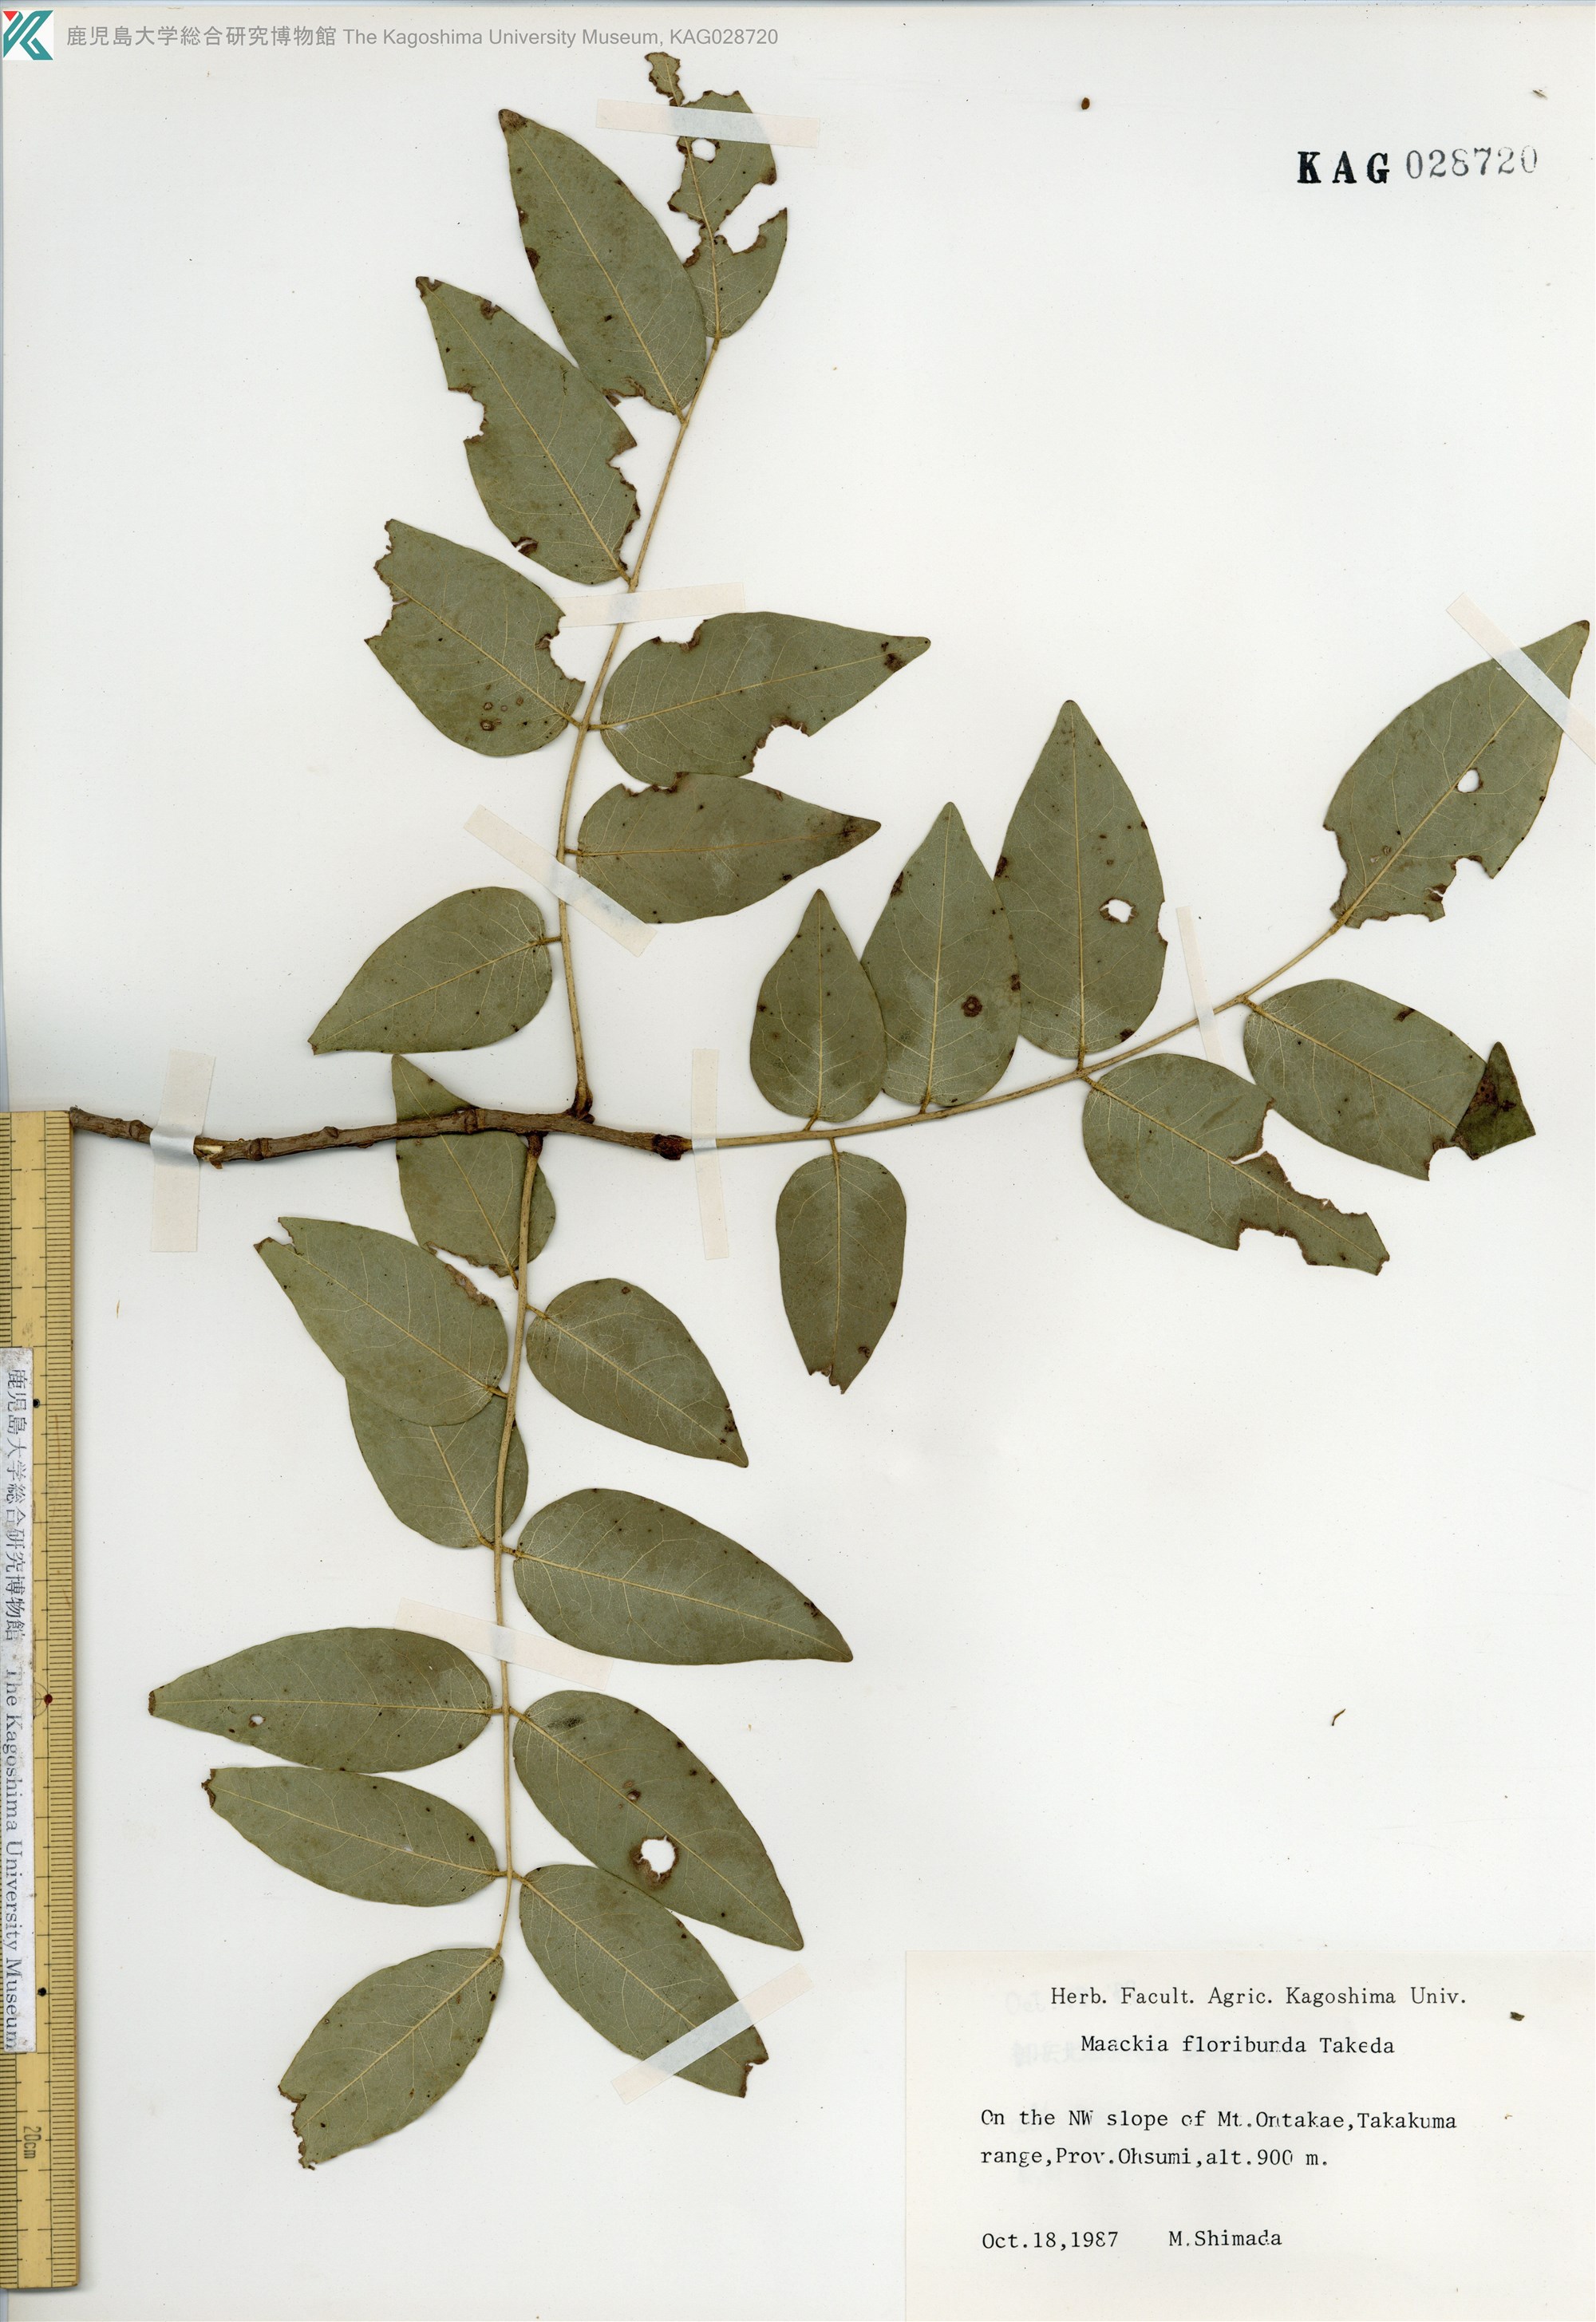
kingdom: Plantae
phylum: Tracheophyta
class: Magnoliopsida
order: Fabales
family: Fabaceae
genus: Maackia
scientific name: Maackia amurensis
